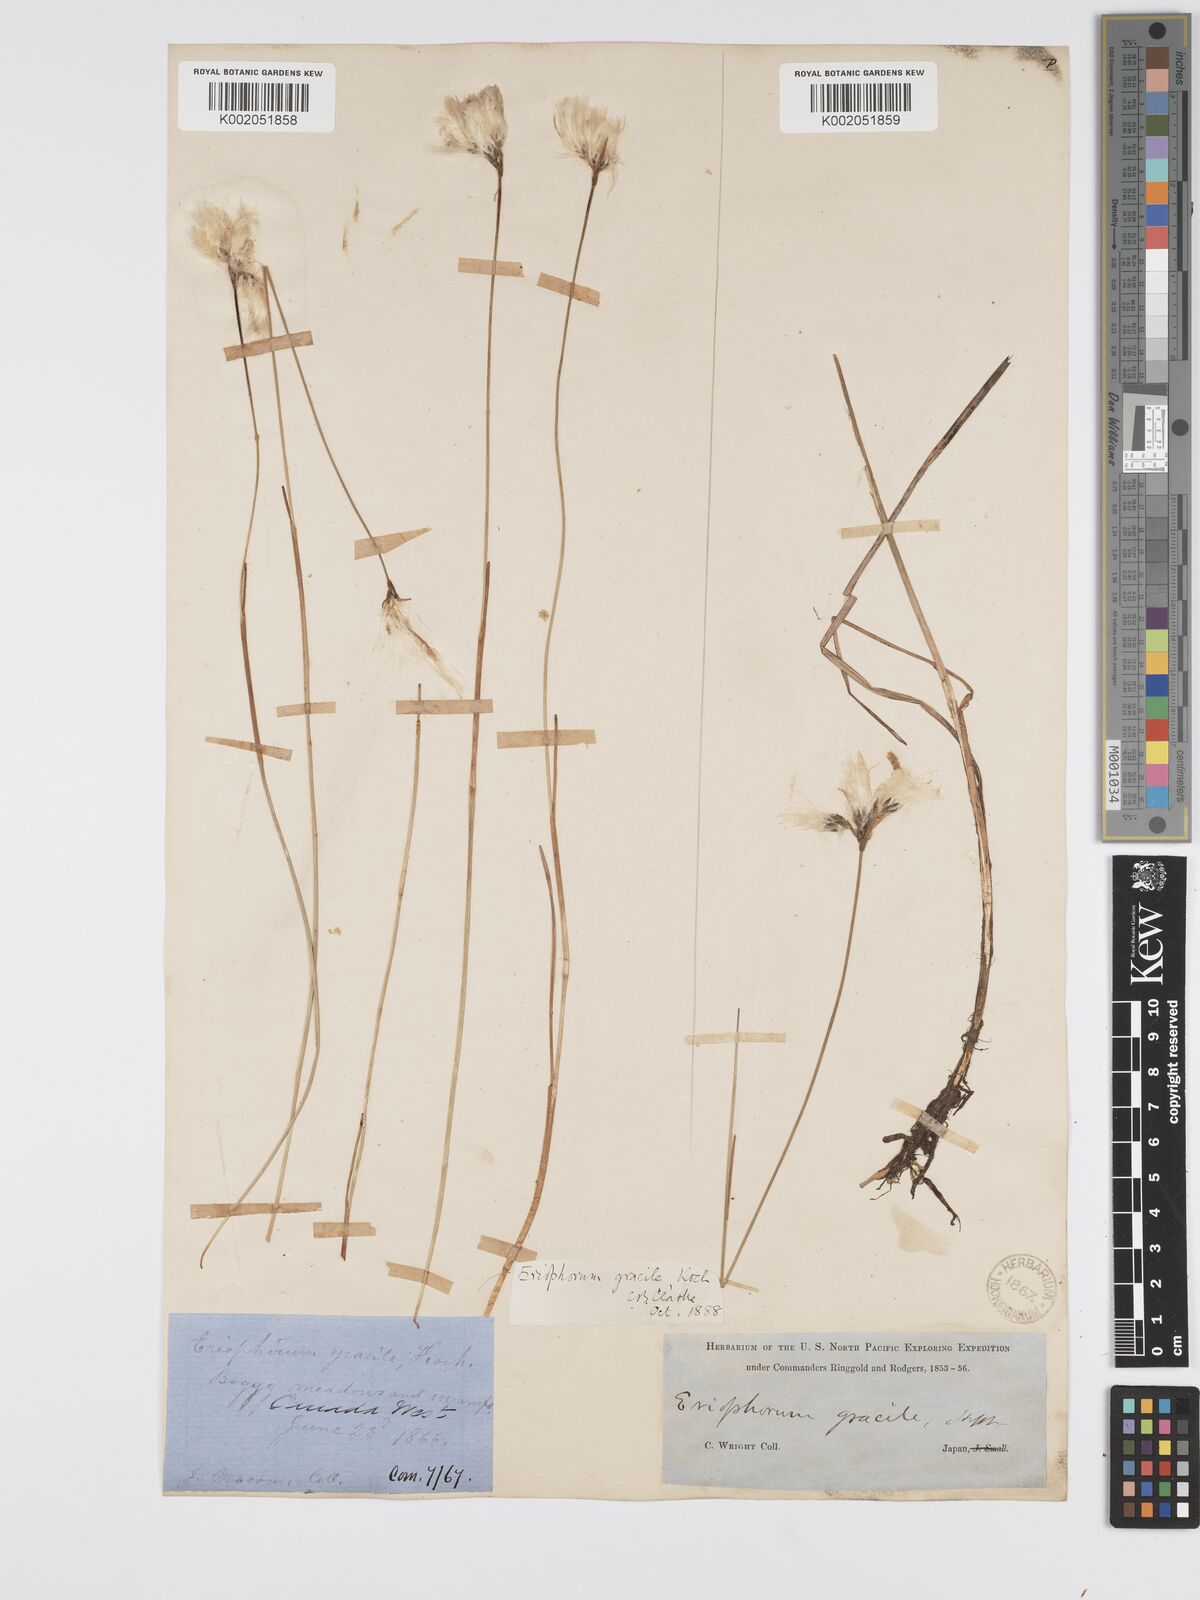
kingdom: Plantae
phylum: Tracheophyta
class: Liliopsida
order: Poales
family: Cyperaceae
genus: Eriophorum
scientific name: Eriophorum gracile
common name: Slender cottongrass
